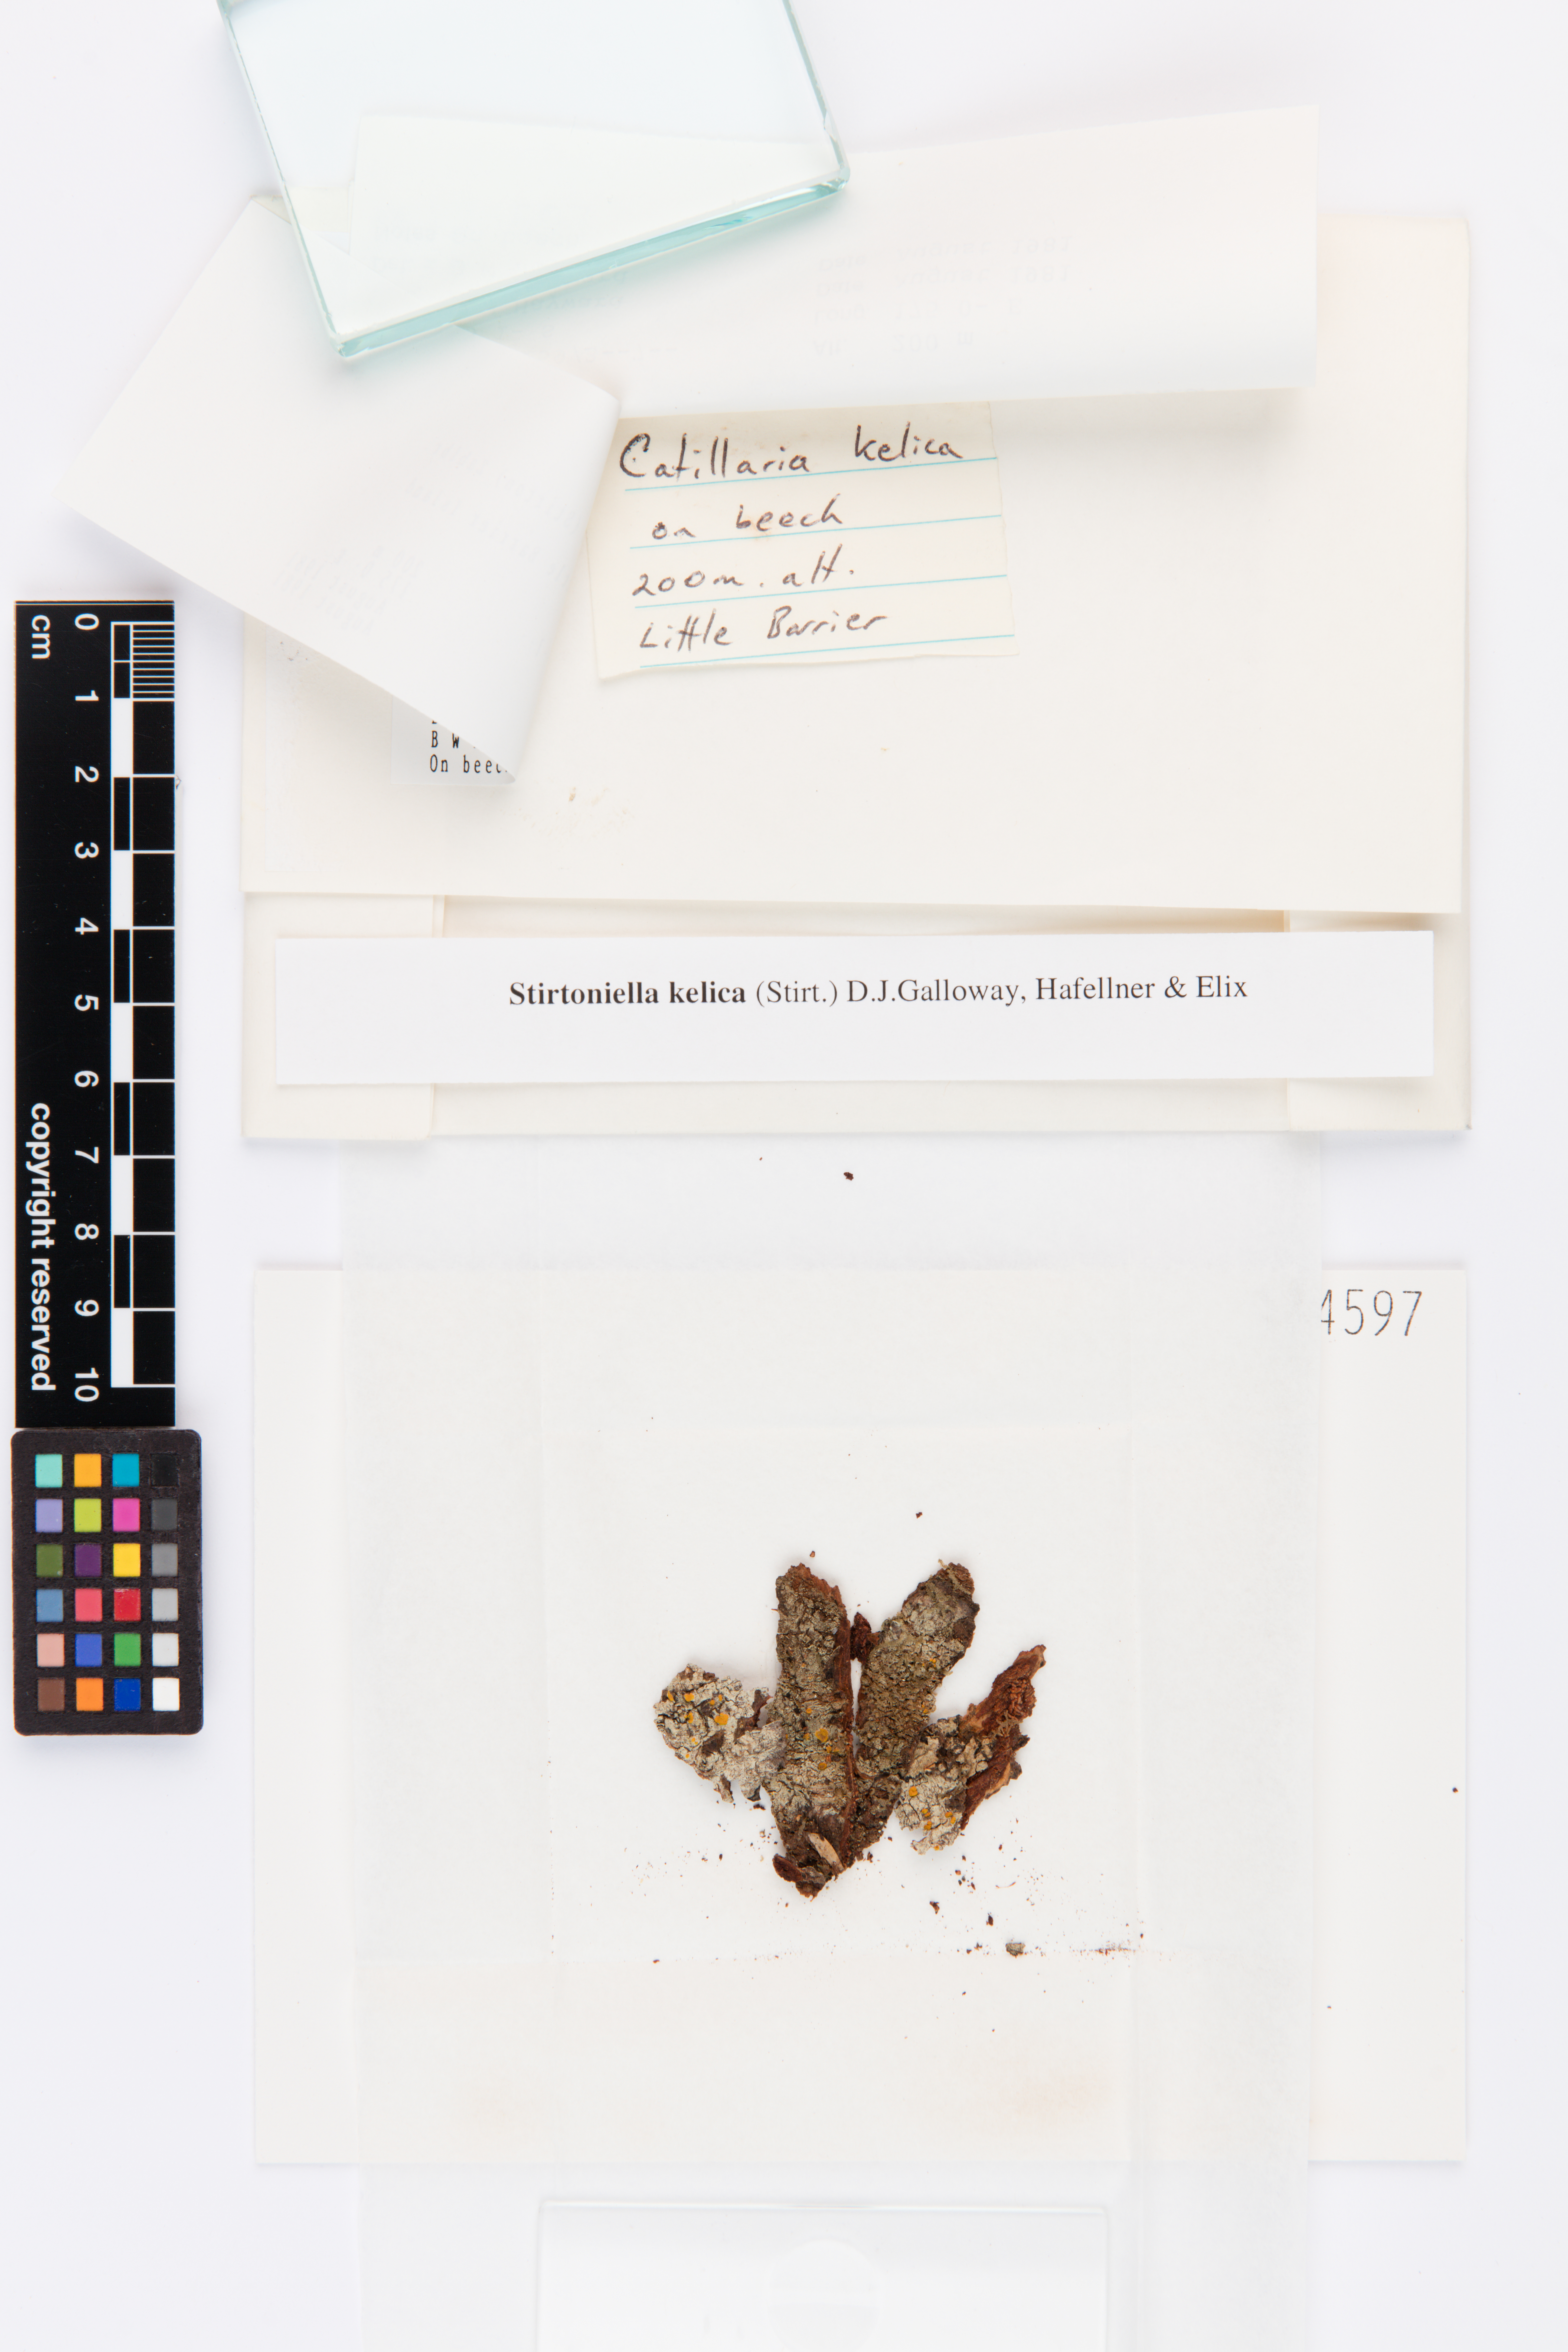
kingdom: Fungi
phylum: Ascomycota
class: Lecanoromycetes
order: Lecanorales
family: Ramalinaceae
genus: Stirtoniella
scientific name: Stirtoniella kelica
